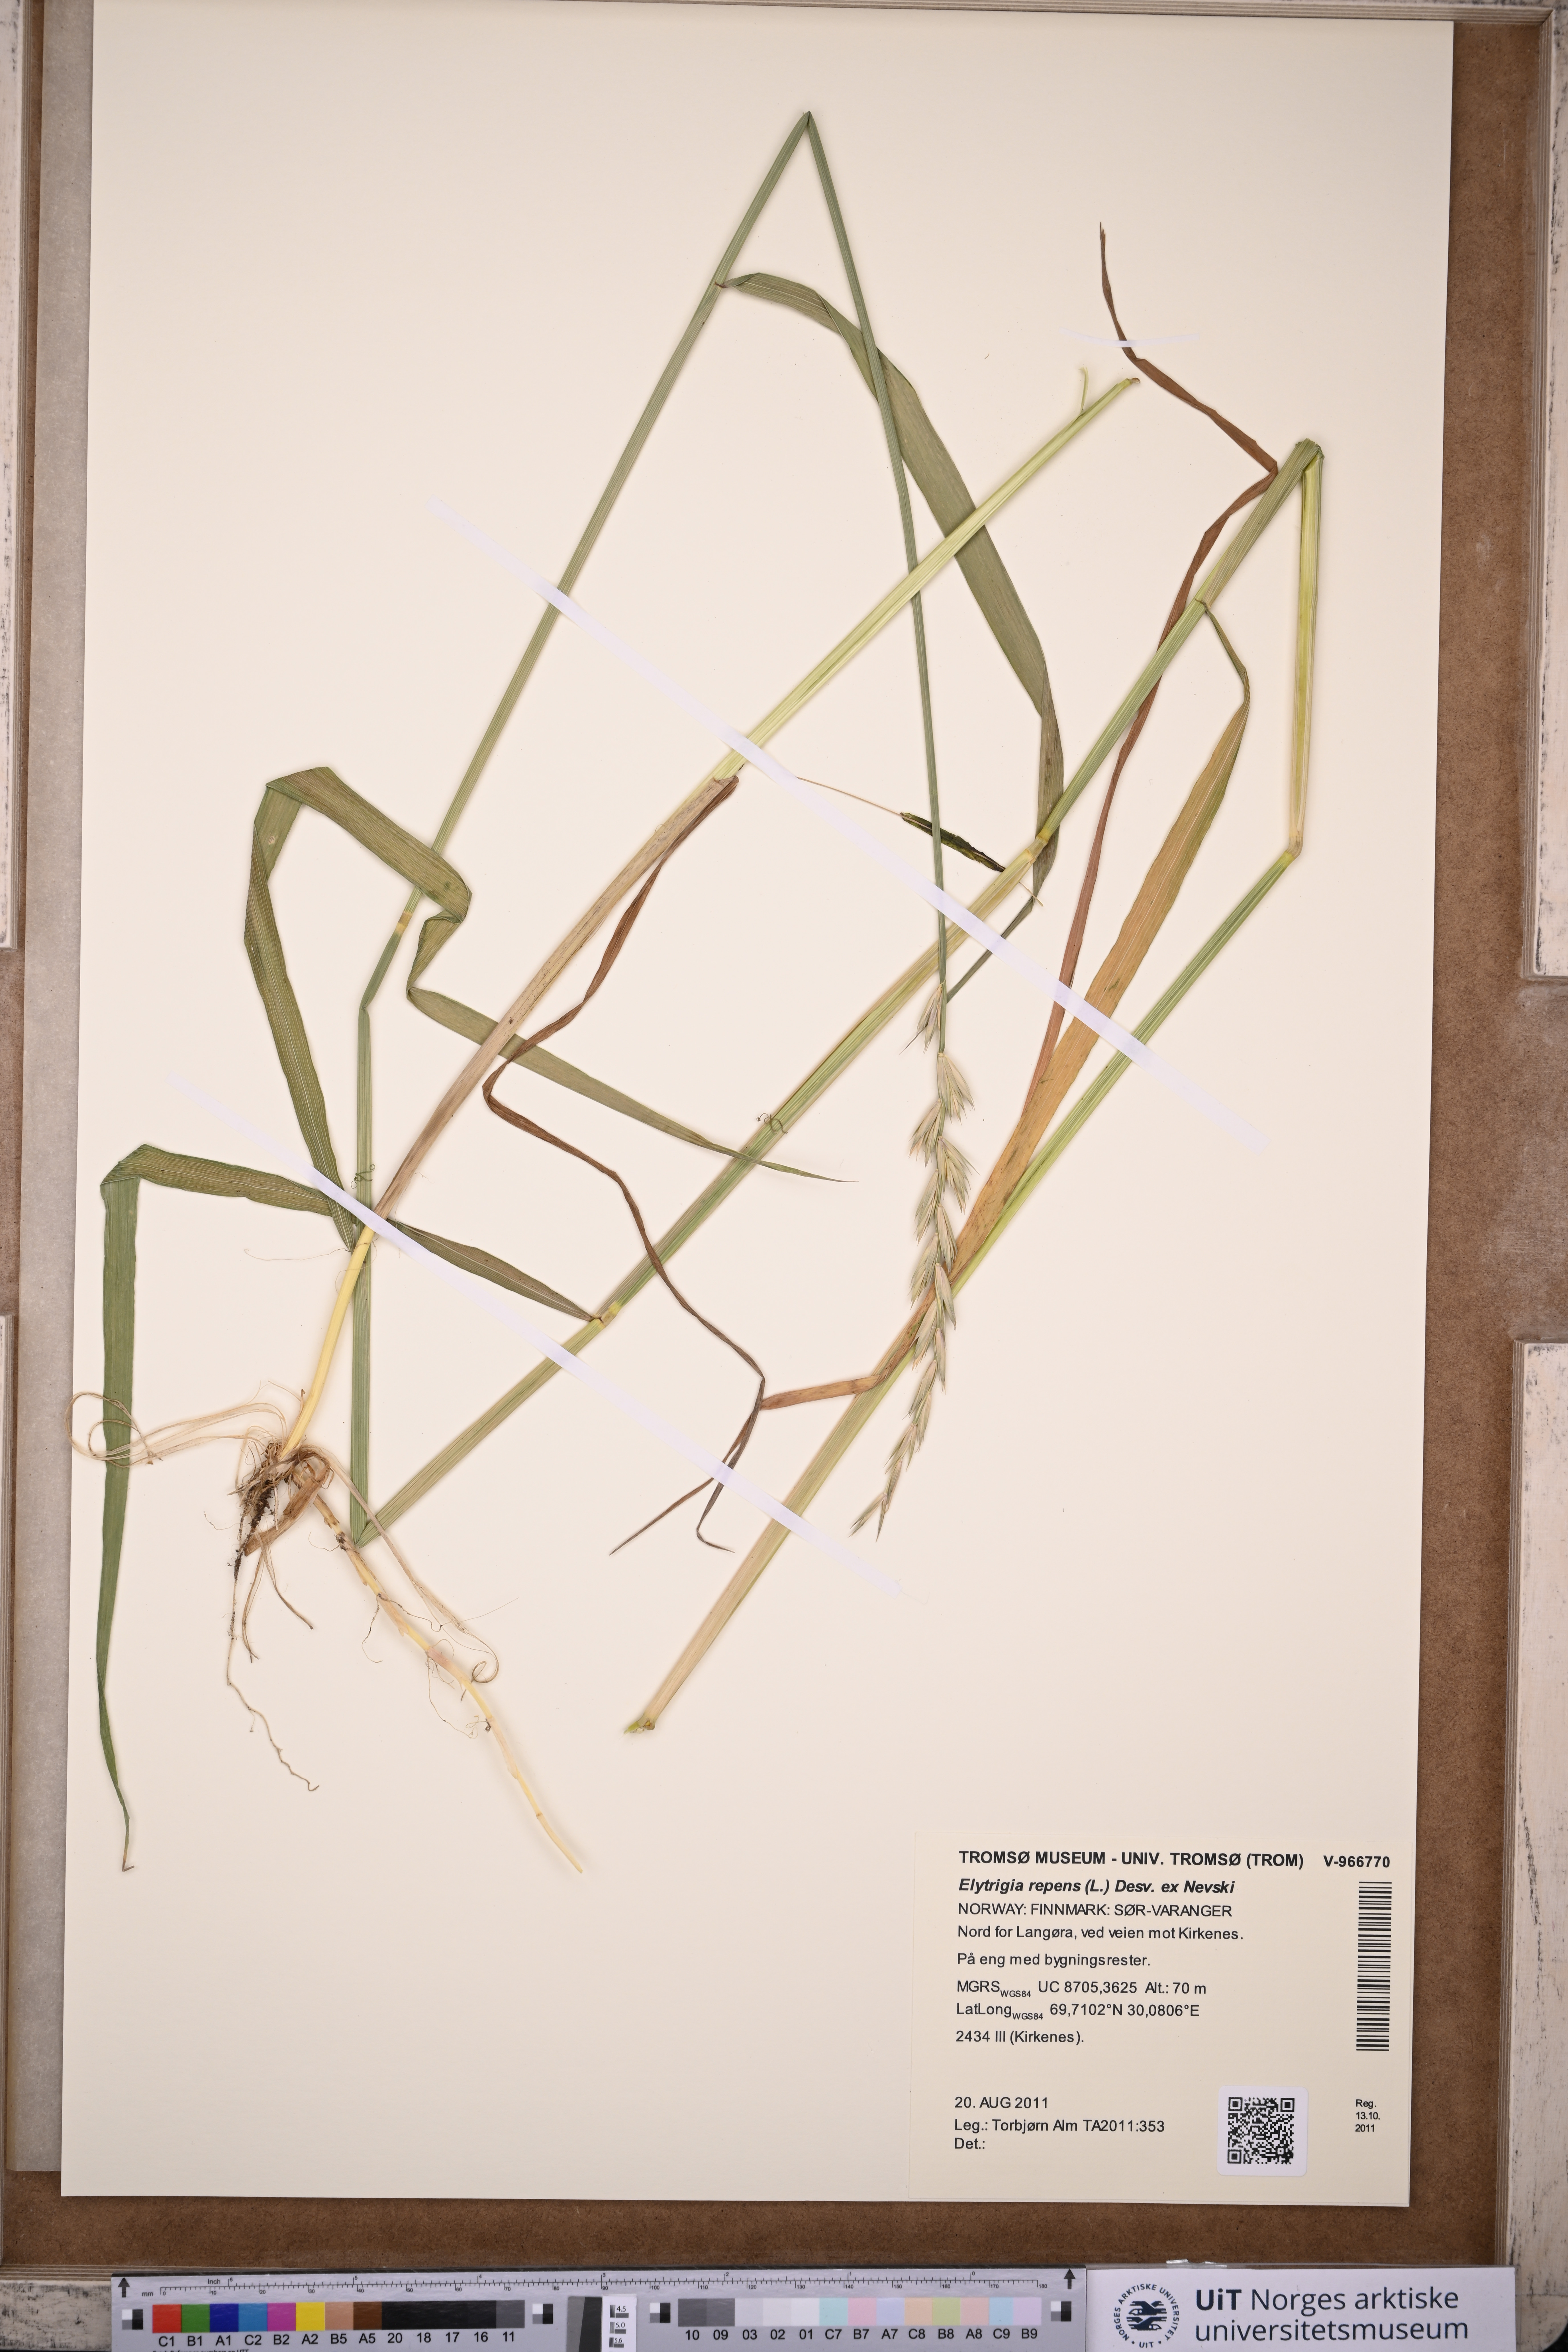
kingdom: Plantae
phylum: Tracheophyta
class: Liliopsida
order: Poales
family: Poaceae
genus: Elymus
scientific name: Elymus repens
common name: Quackgrass
